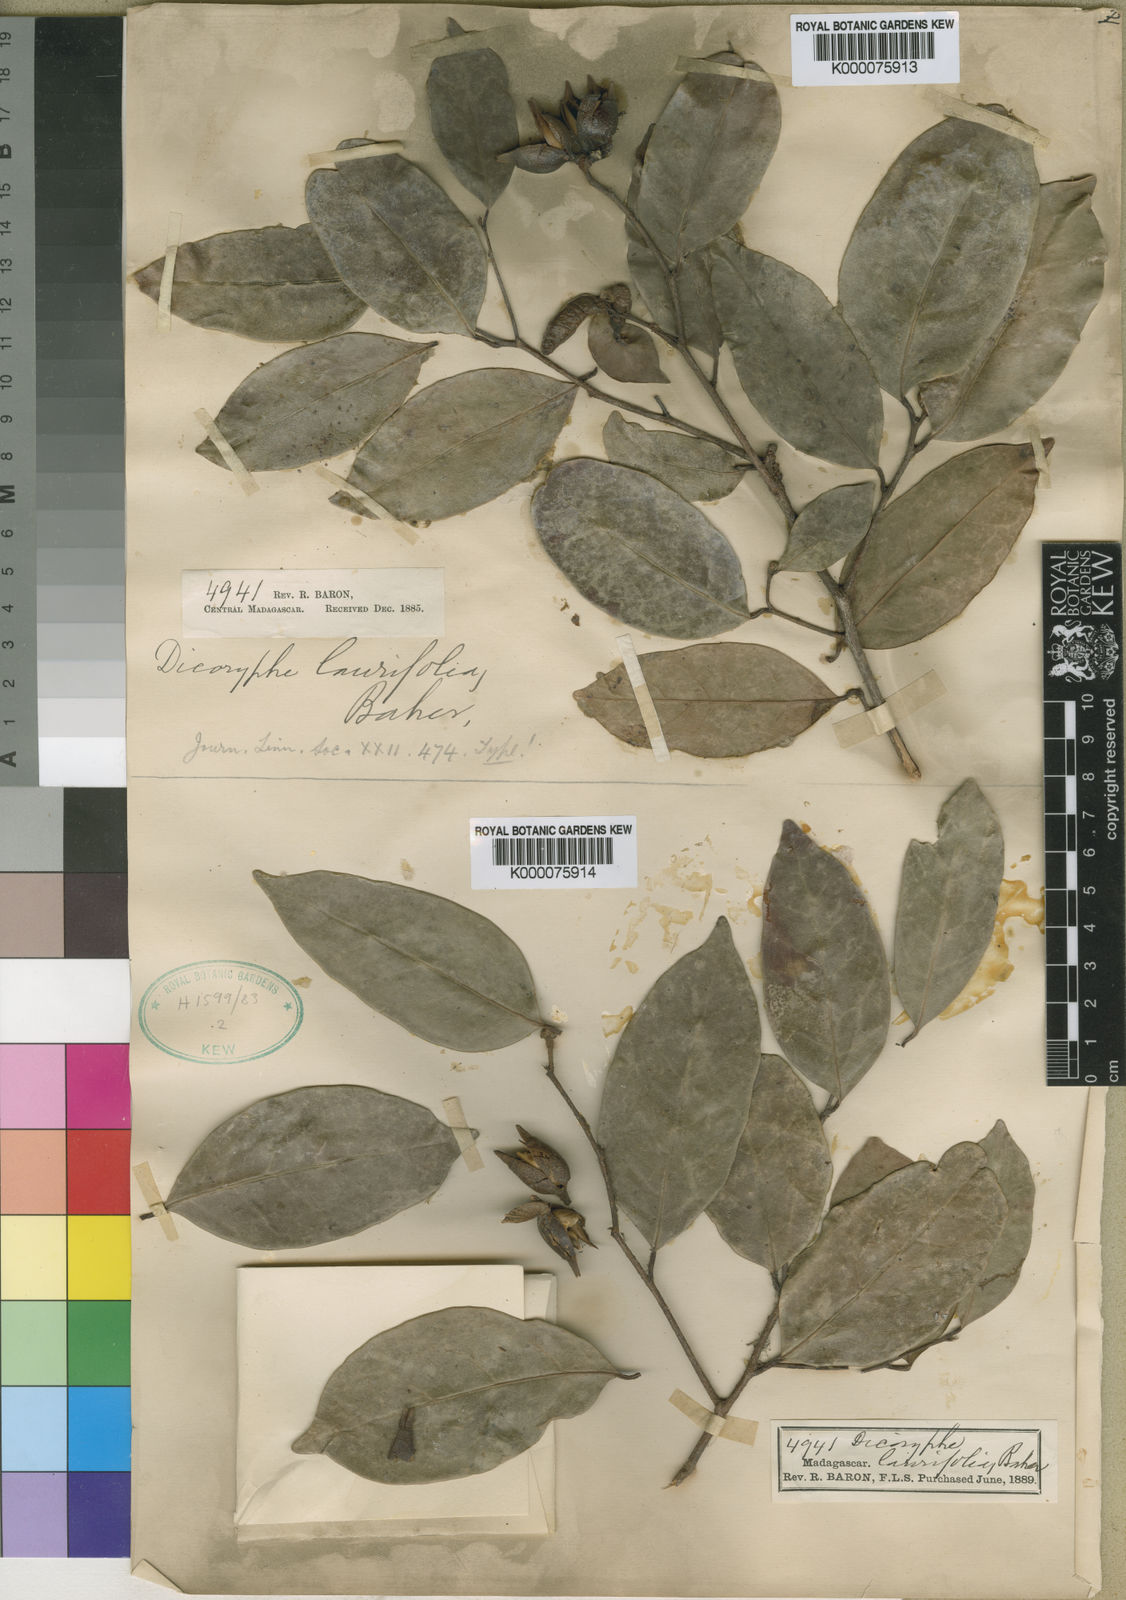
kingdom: Plantae
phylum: Tracheophyta
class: Magnoliopsida
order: Saxifragales
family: Hamamelidaceae
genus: Dicoryphe
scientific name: Dicoryphe laurina
